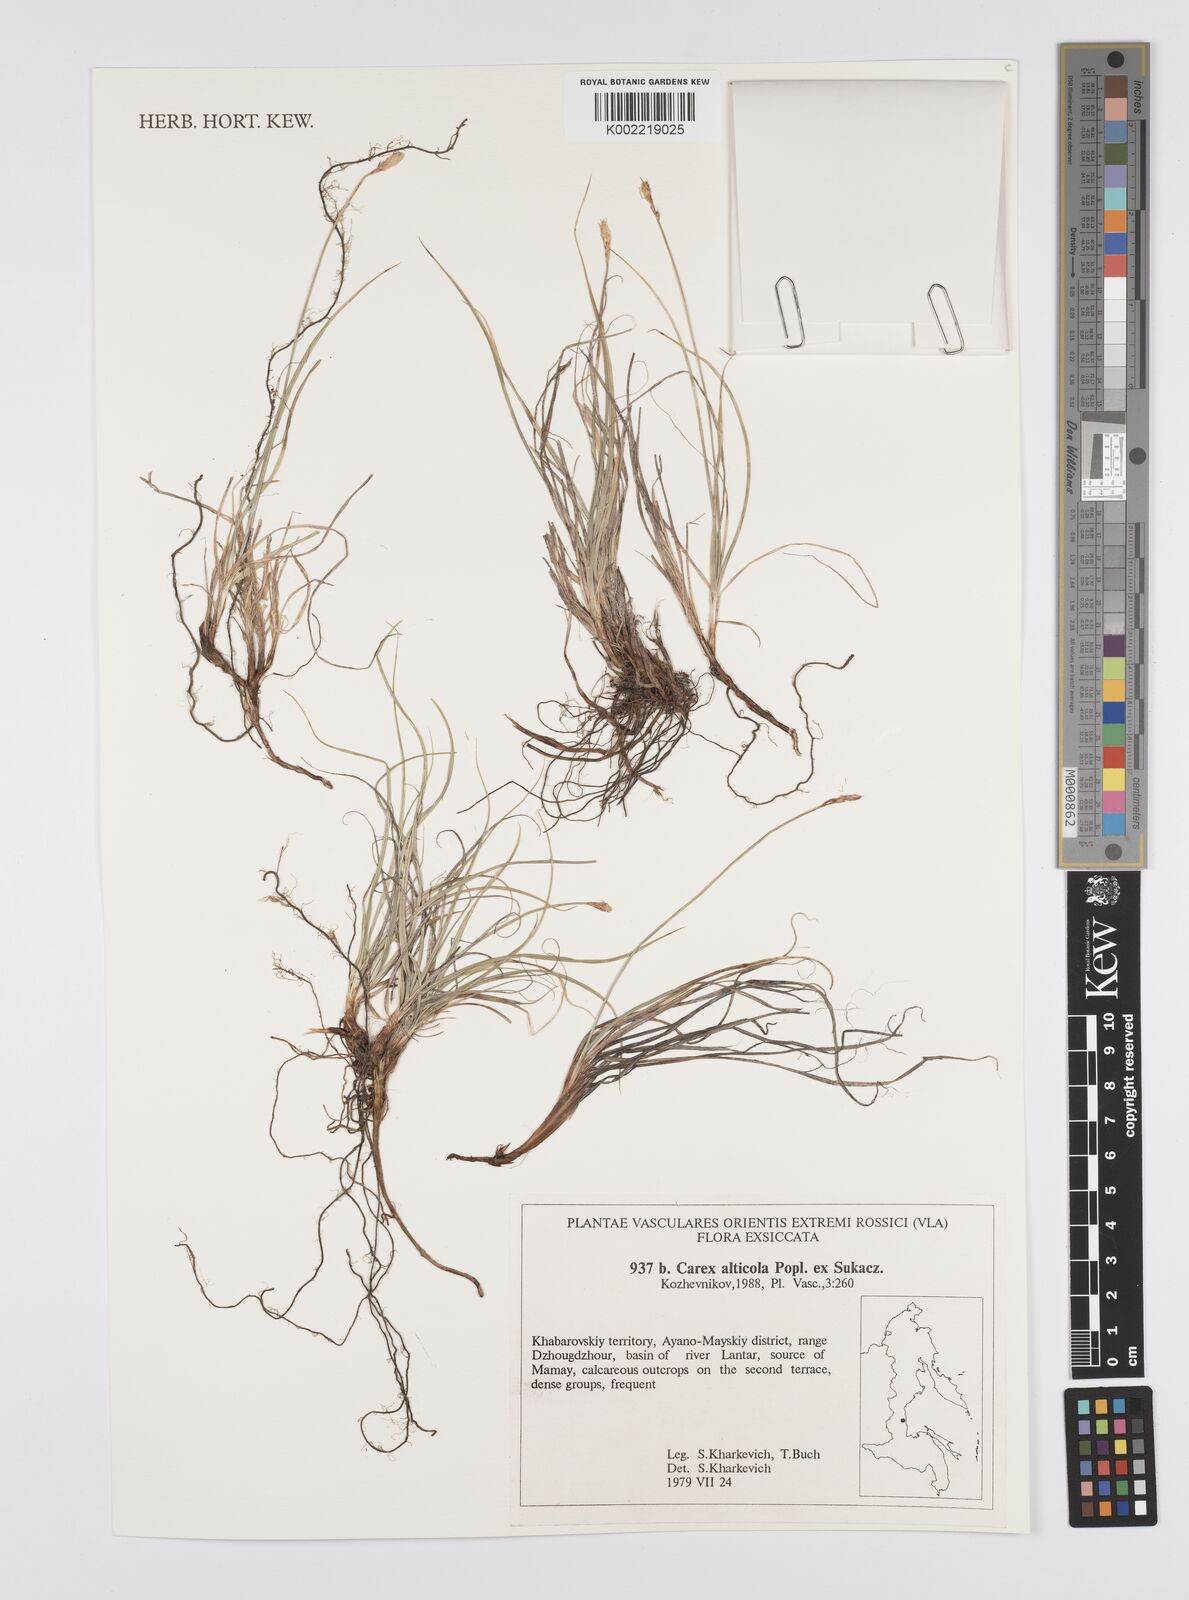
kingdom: Plantae
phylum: Tracheophyta
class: Liliopsida
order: Poales
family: Cyperaceae
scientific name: Cyperaceae
